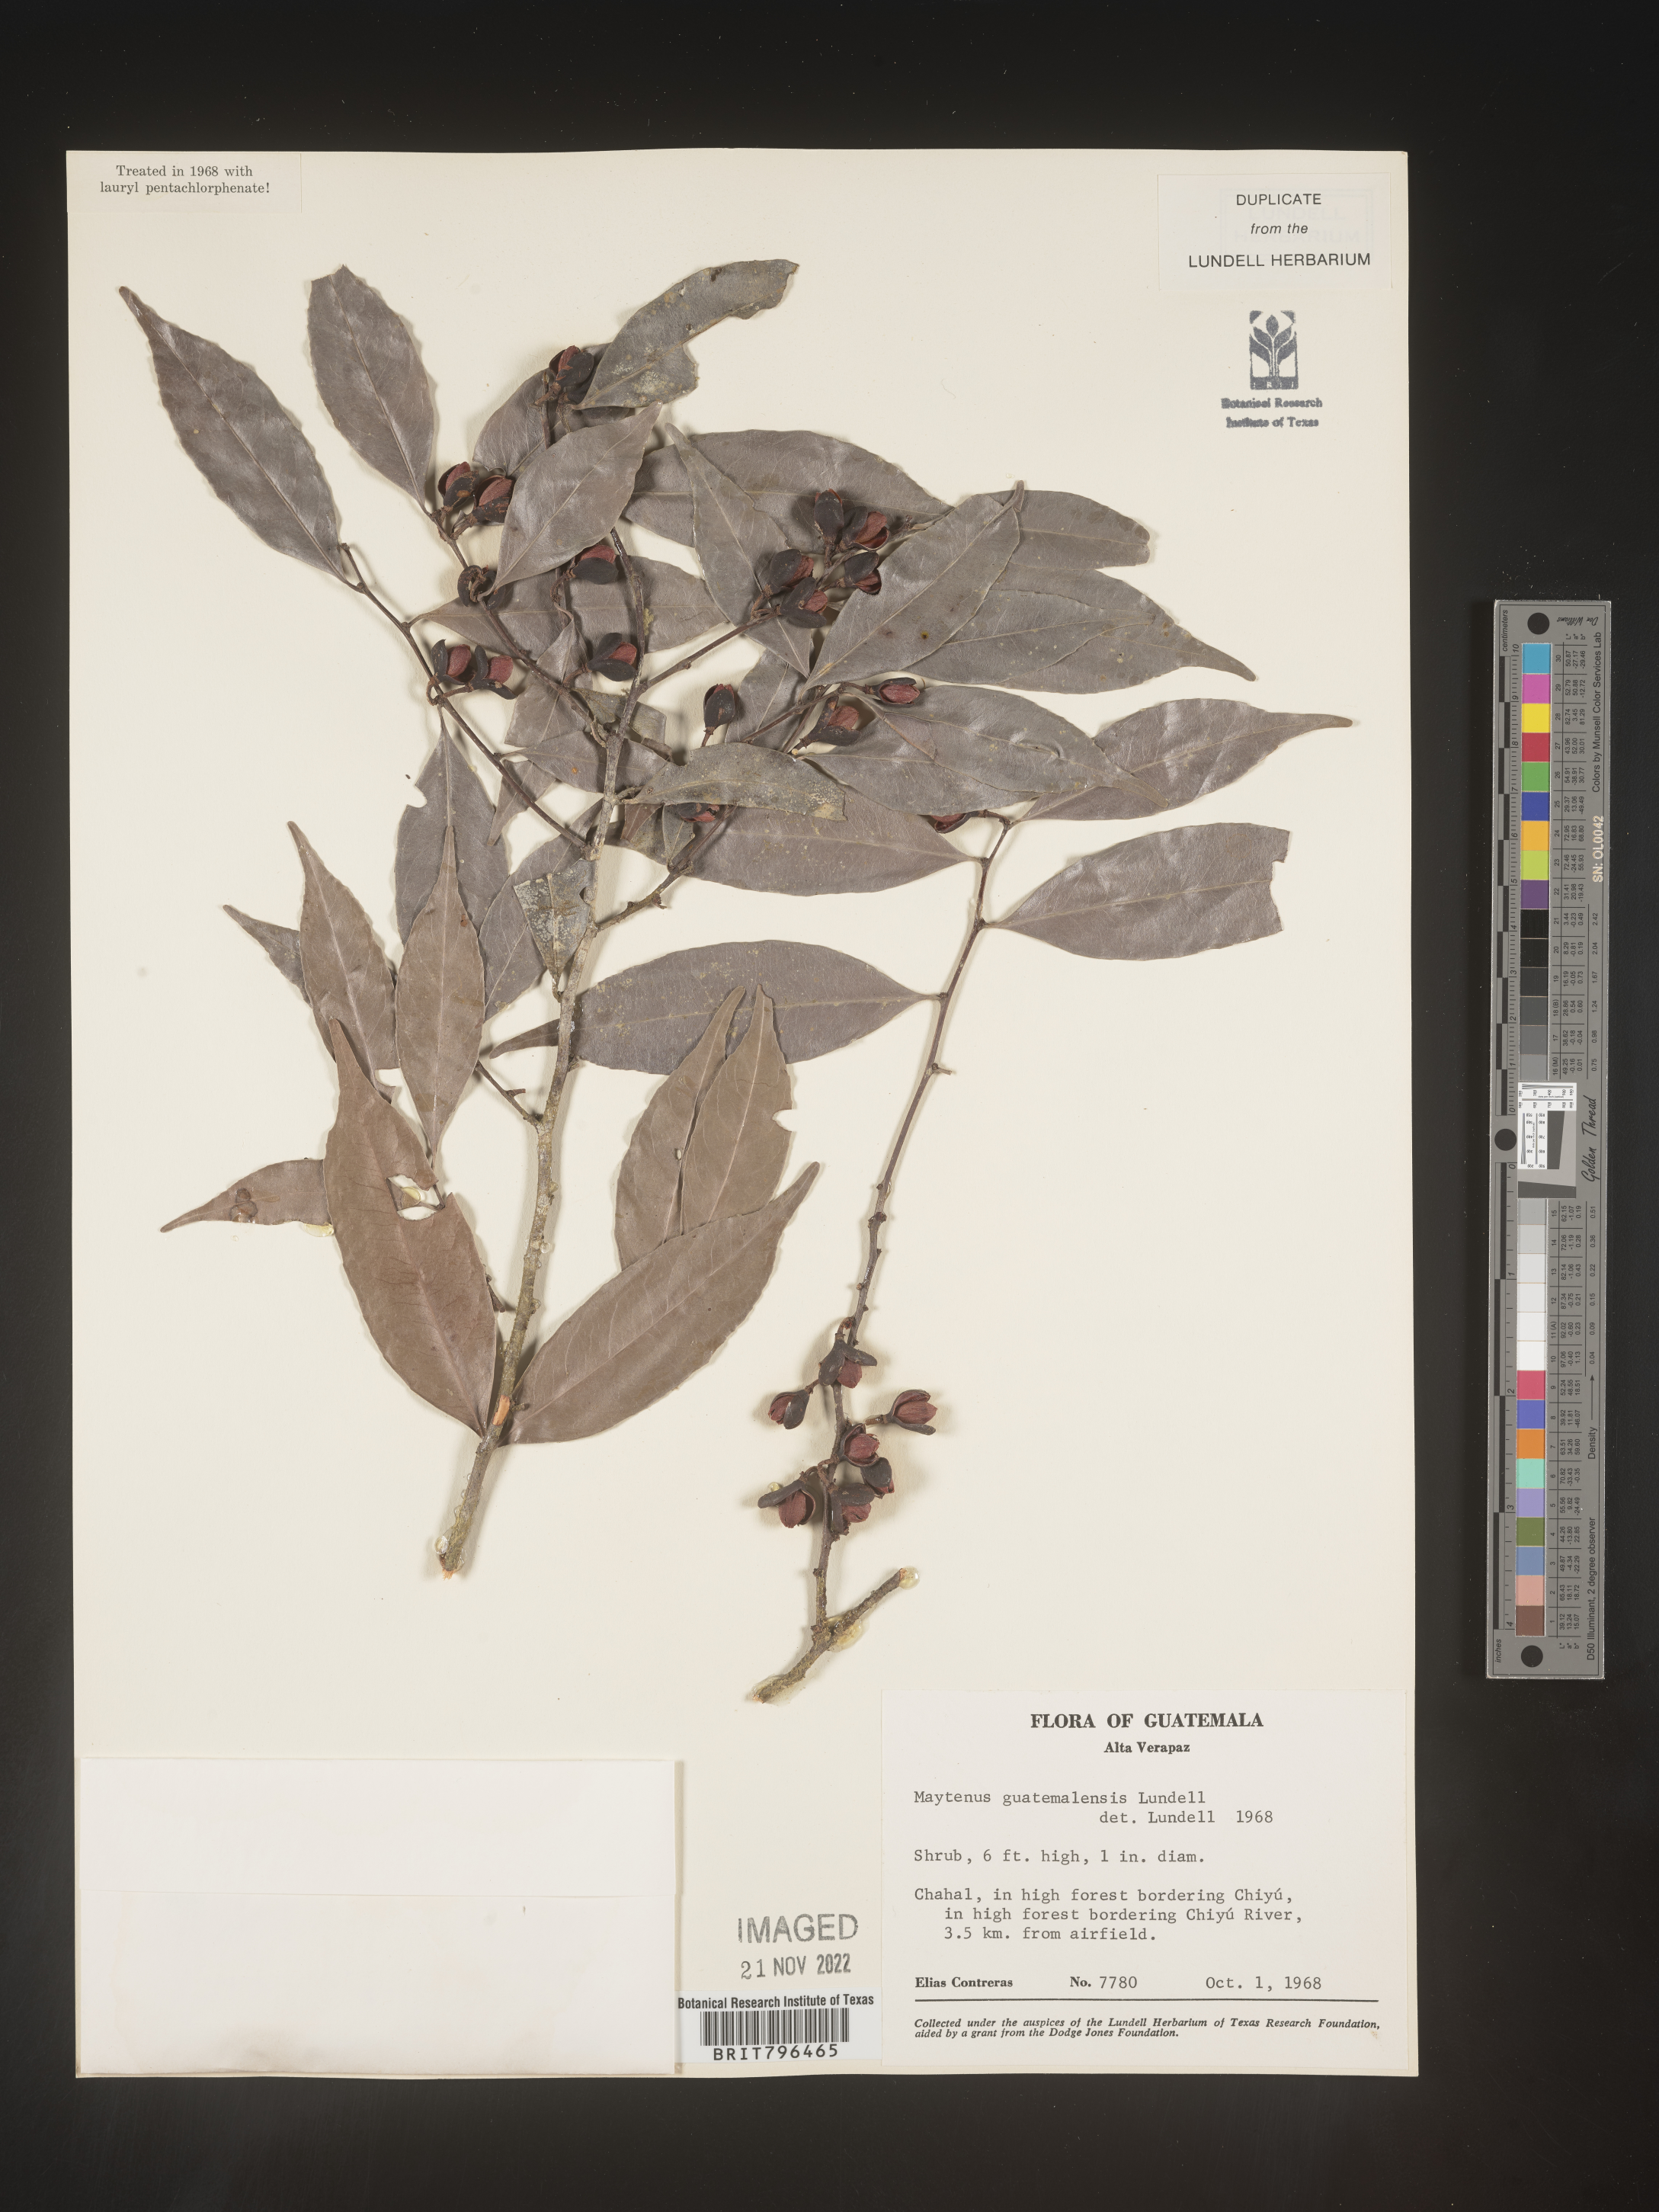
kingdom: Plantae
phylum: Tracheophyta
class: Magnoliopsida
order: Celastrales
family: Celastraceae
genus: Maytenus
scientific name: Maytenus
